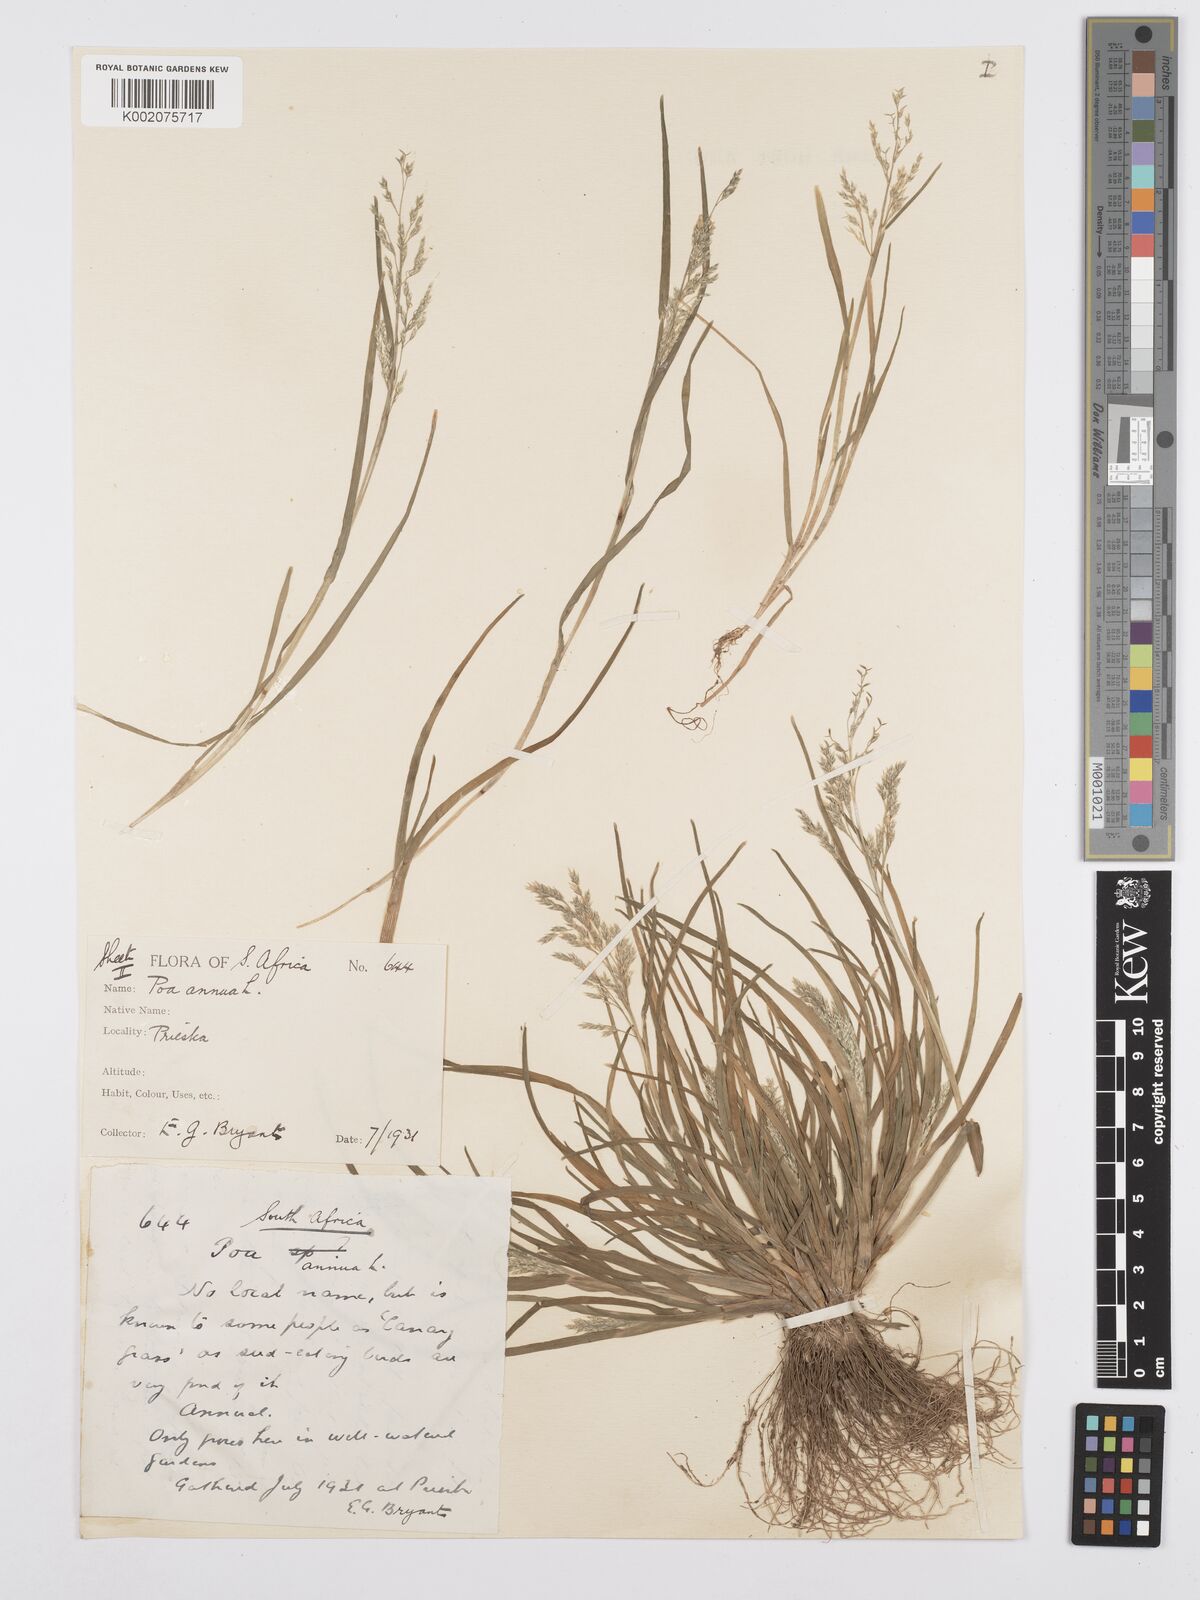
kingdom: Plantae
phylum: Tracheophyta
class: Liliopsida
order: Poales
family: Poaceae
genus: Poa
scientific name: Poa annua
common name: Annual bluegrass
